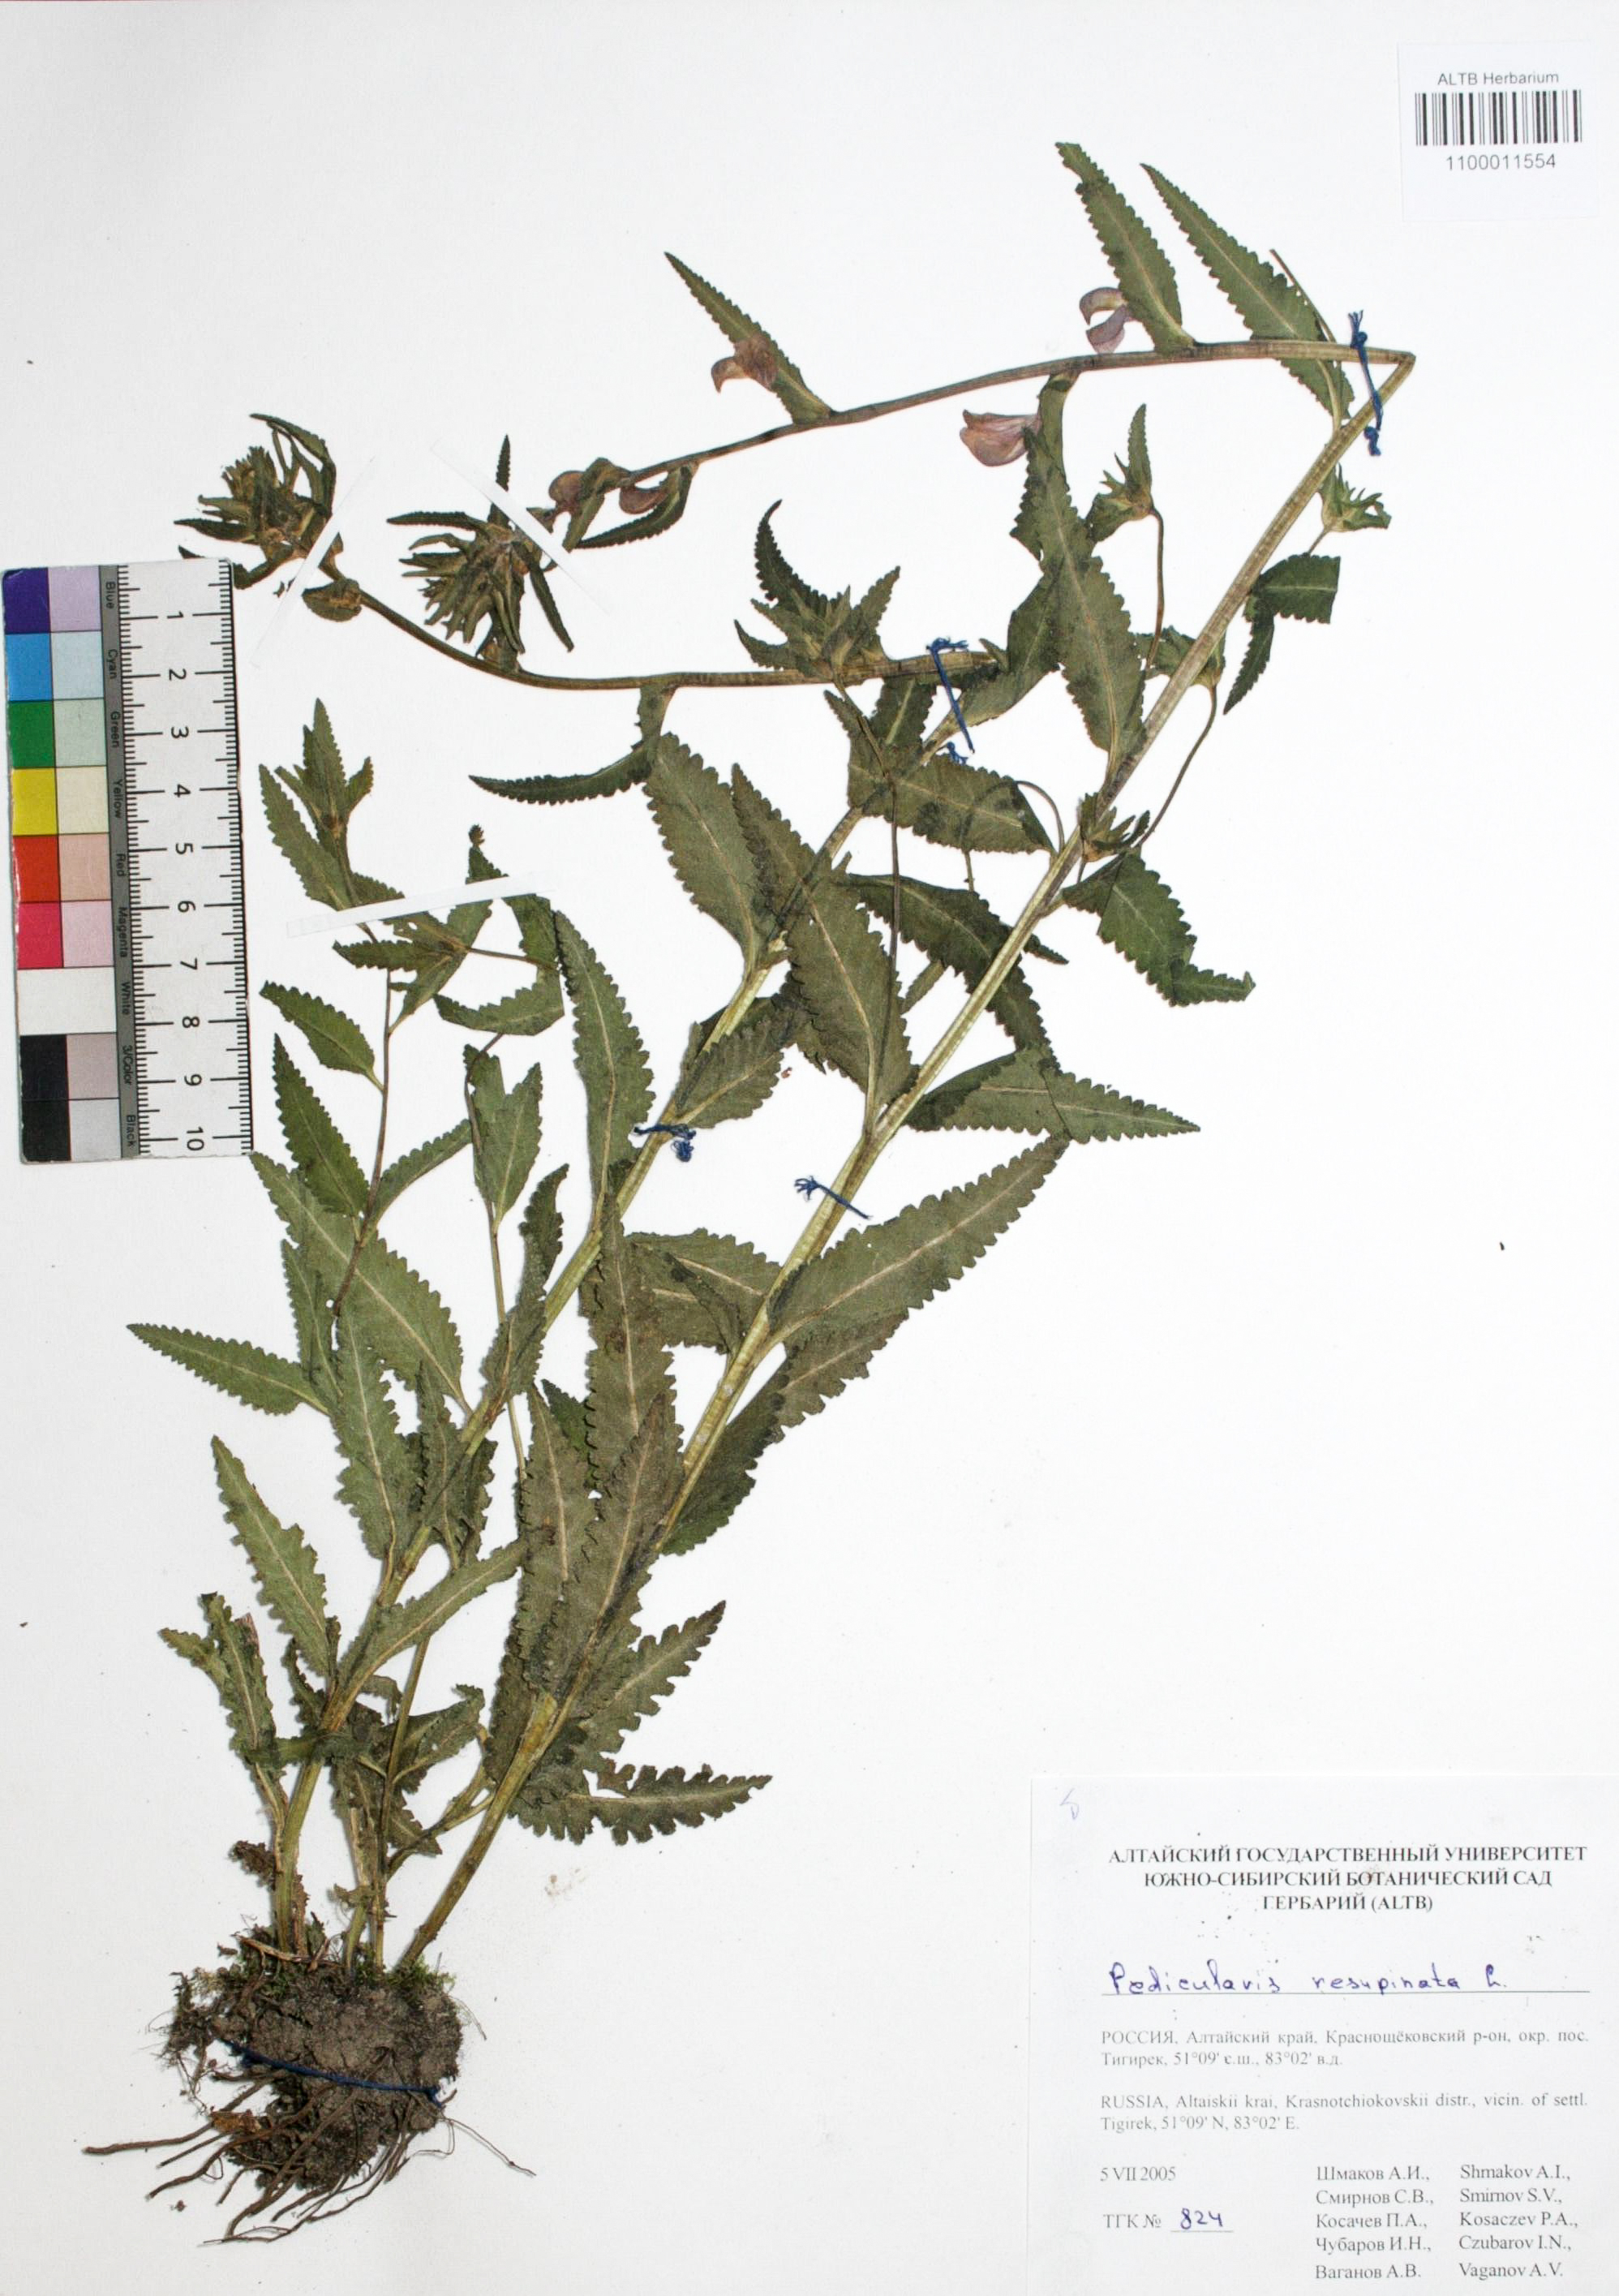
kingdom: Plantae
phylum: Tracheophyta
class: Magnoliopsida
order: Lamiales
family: Orobanchaceae
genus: Pedicularis
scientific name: Pedicularis resupinata
